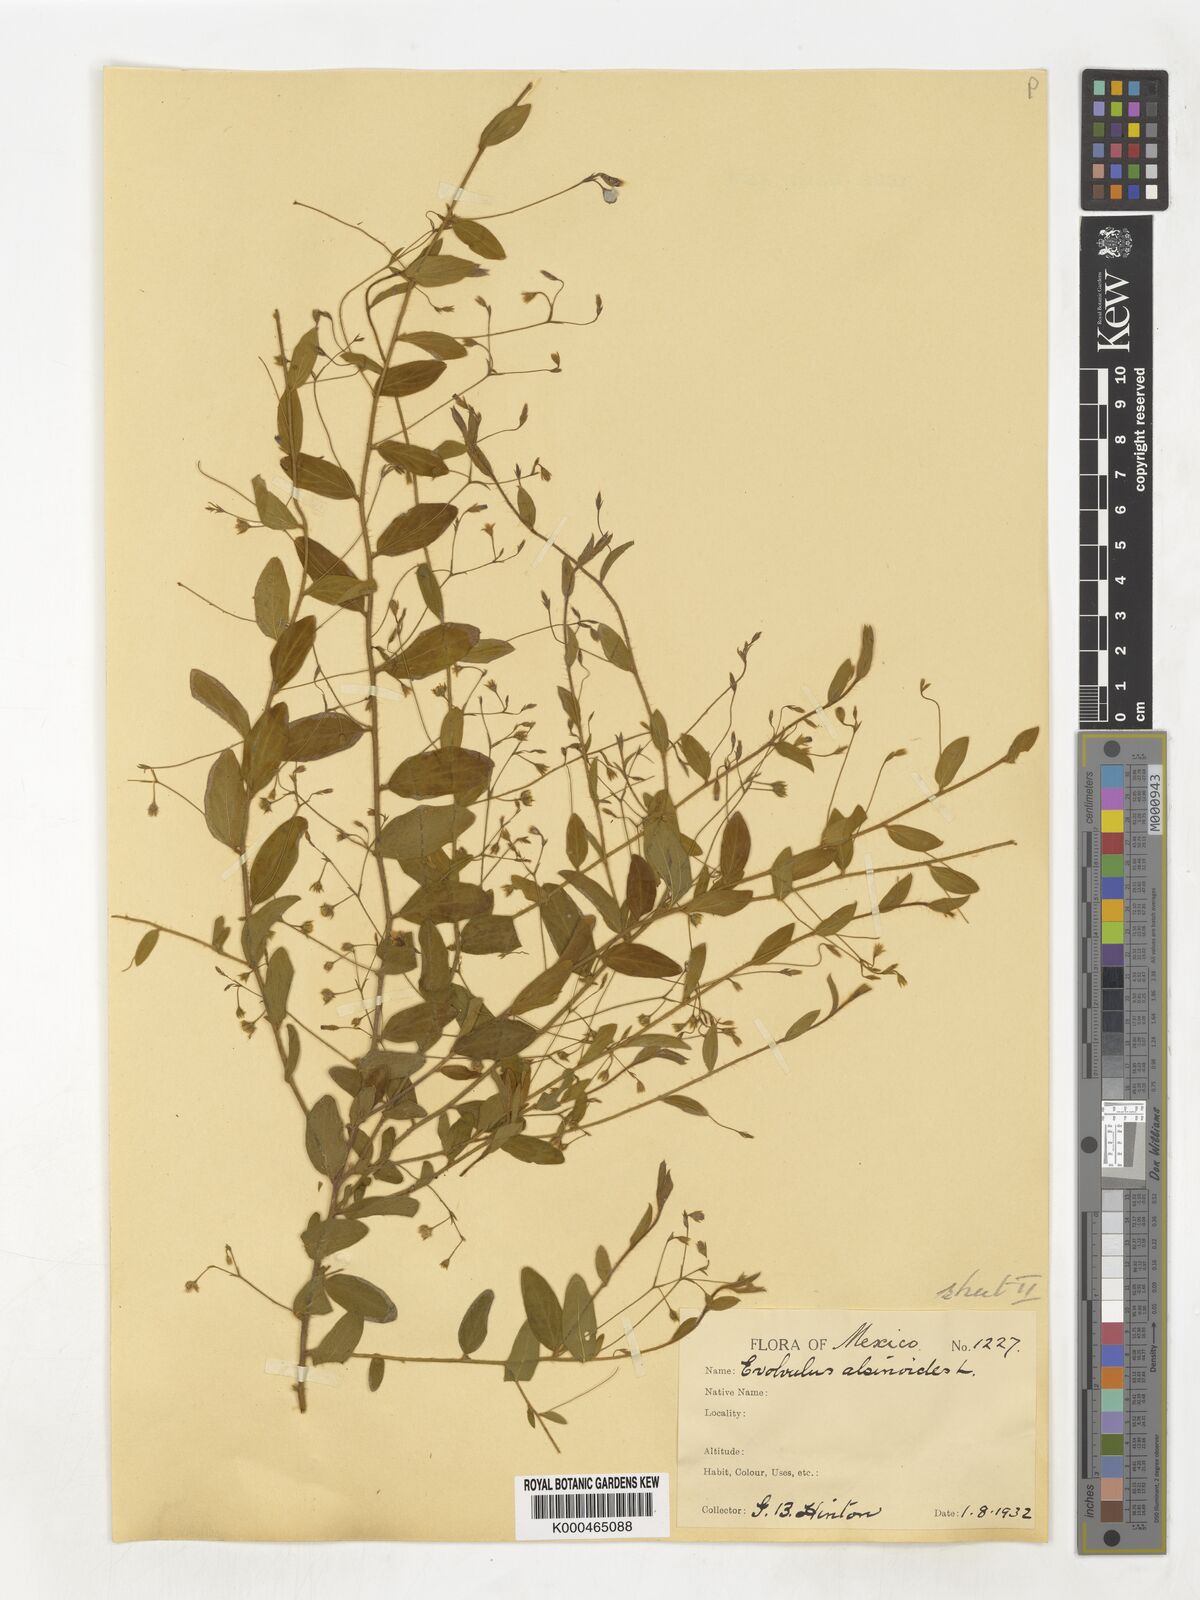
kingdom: Plantae
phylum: Tracheophyta
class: Magnoliopsida
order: Solanales
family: Convolvulaceae
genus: Evolvulus
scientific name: Evolvulus alsinoides
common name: Slender dwarf morning-glory
